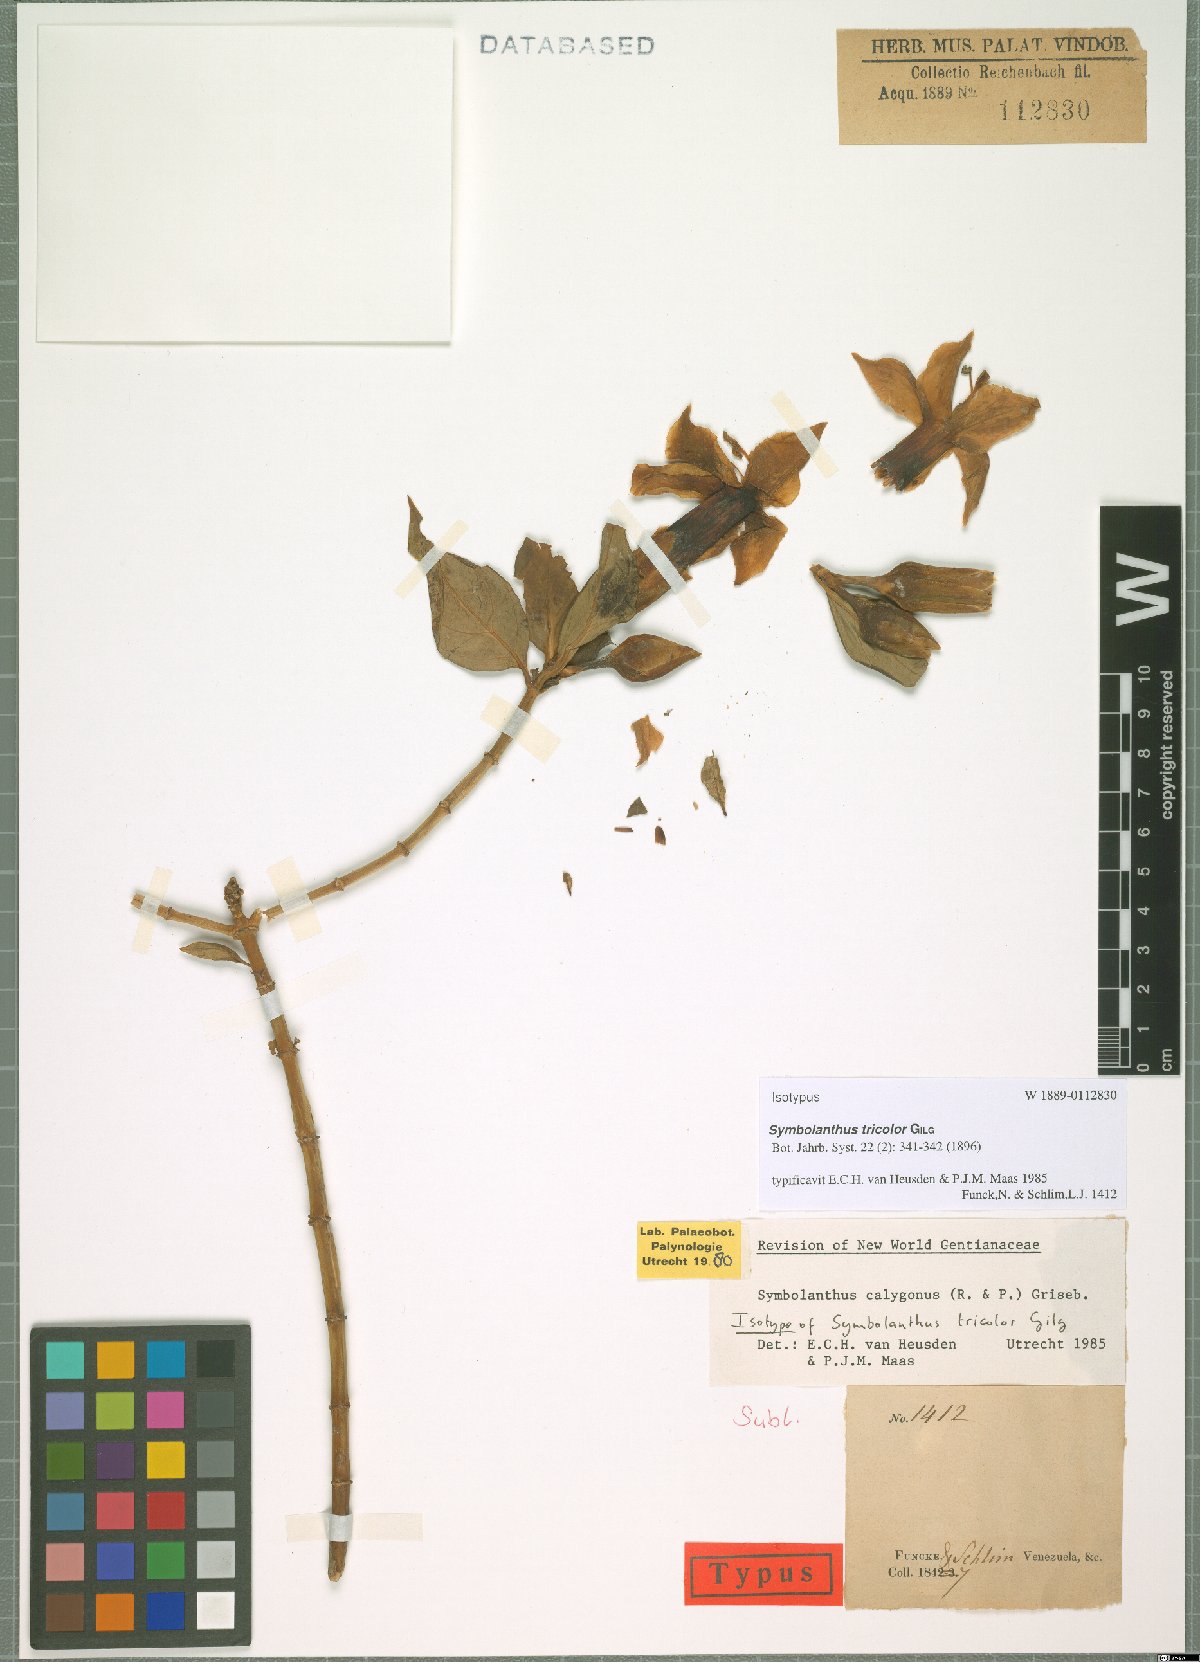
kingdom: Plantae
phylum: Tracheophyta
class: Magnoliopsida
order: Gentianales
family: Gentianaceae
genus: Symbolanthus
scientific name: Symbolanthus anomalus
